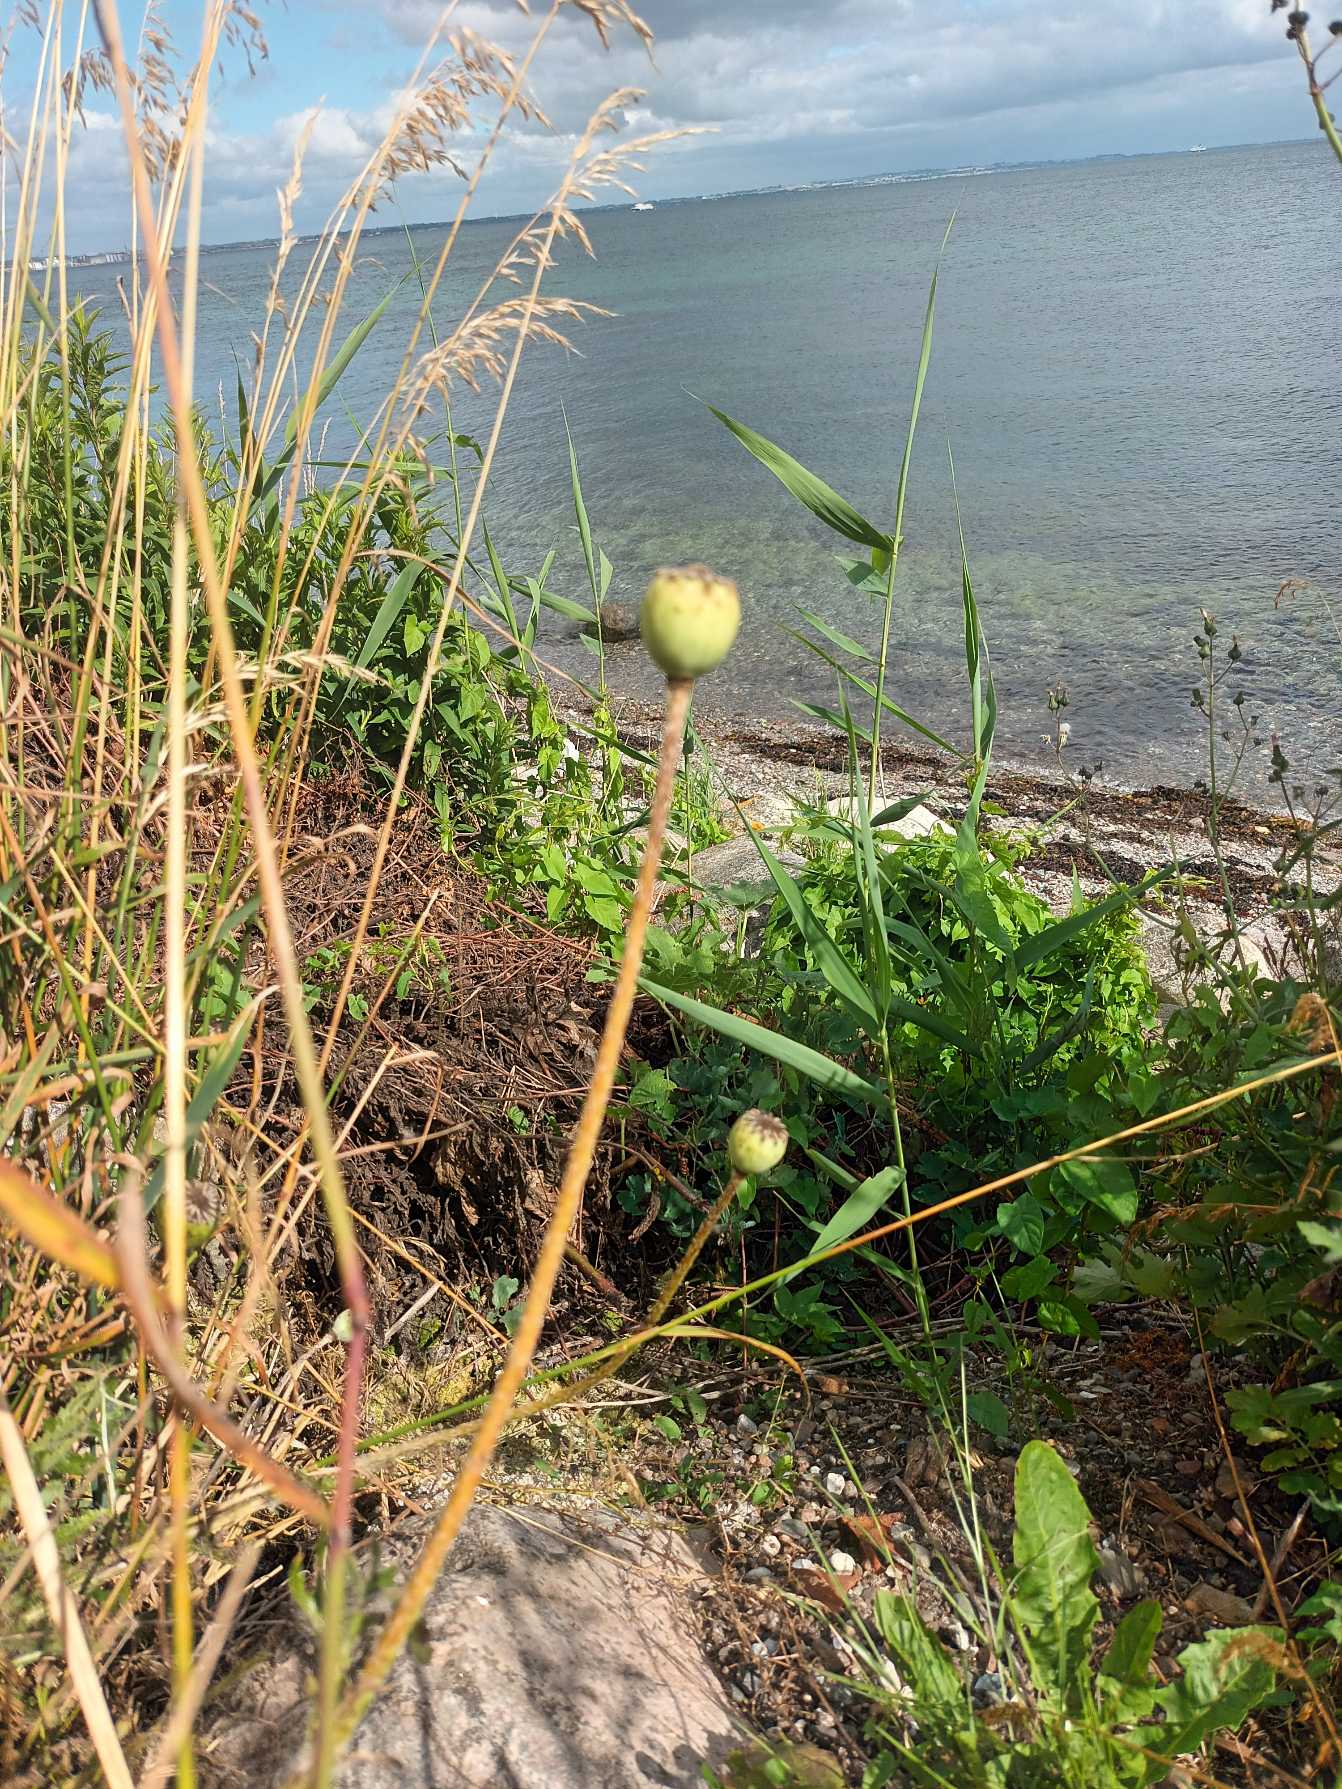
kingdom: Plantae
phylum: Tracheophyta
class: Magnoliopsida
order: Ranunculales
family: Papaveraceae
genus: Papaver
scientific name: Papaver setiferum
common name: Kæmpe-valmue
